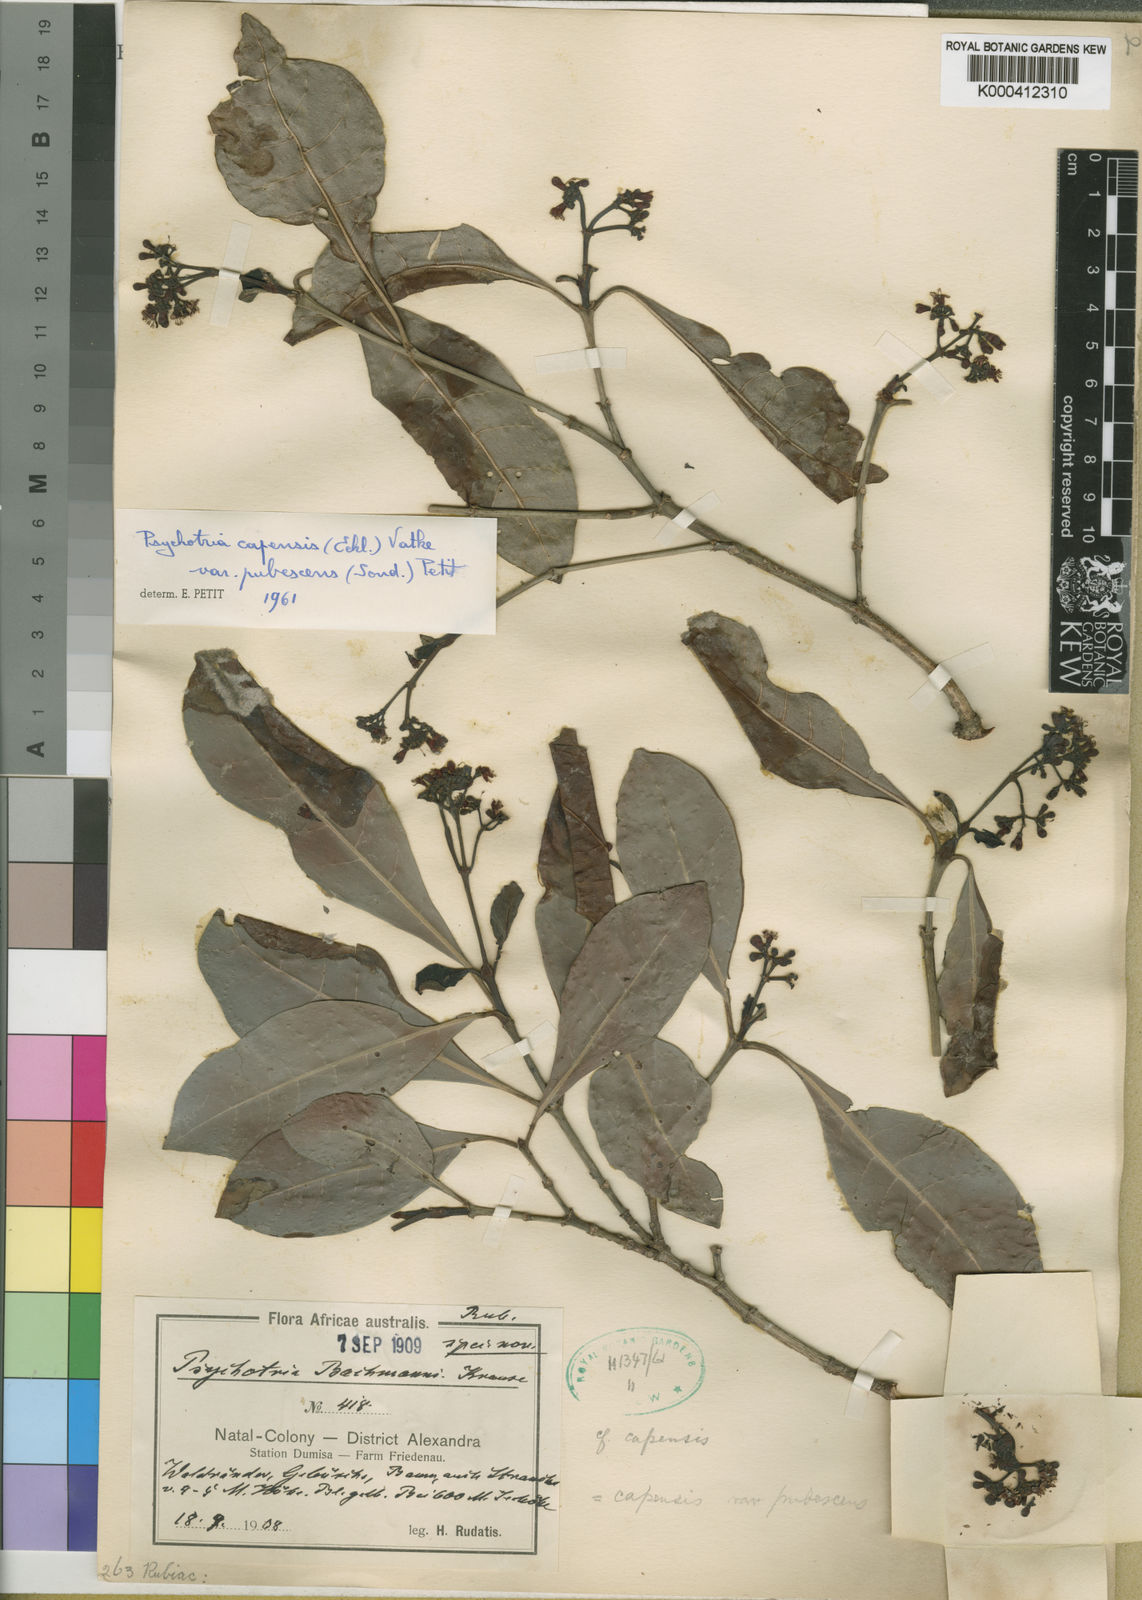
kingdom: Plantae
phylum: Tracheophyta
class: Magnoliopsida
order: Gentianales
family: Rubiaceae
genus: Psychotria
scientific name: Psychotria capensis
